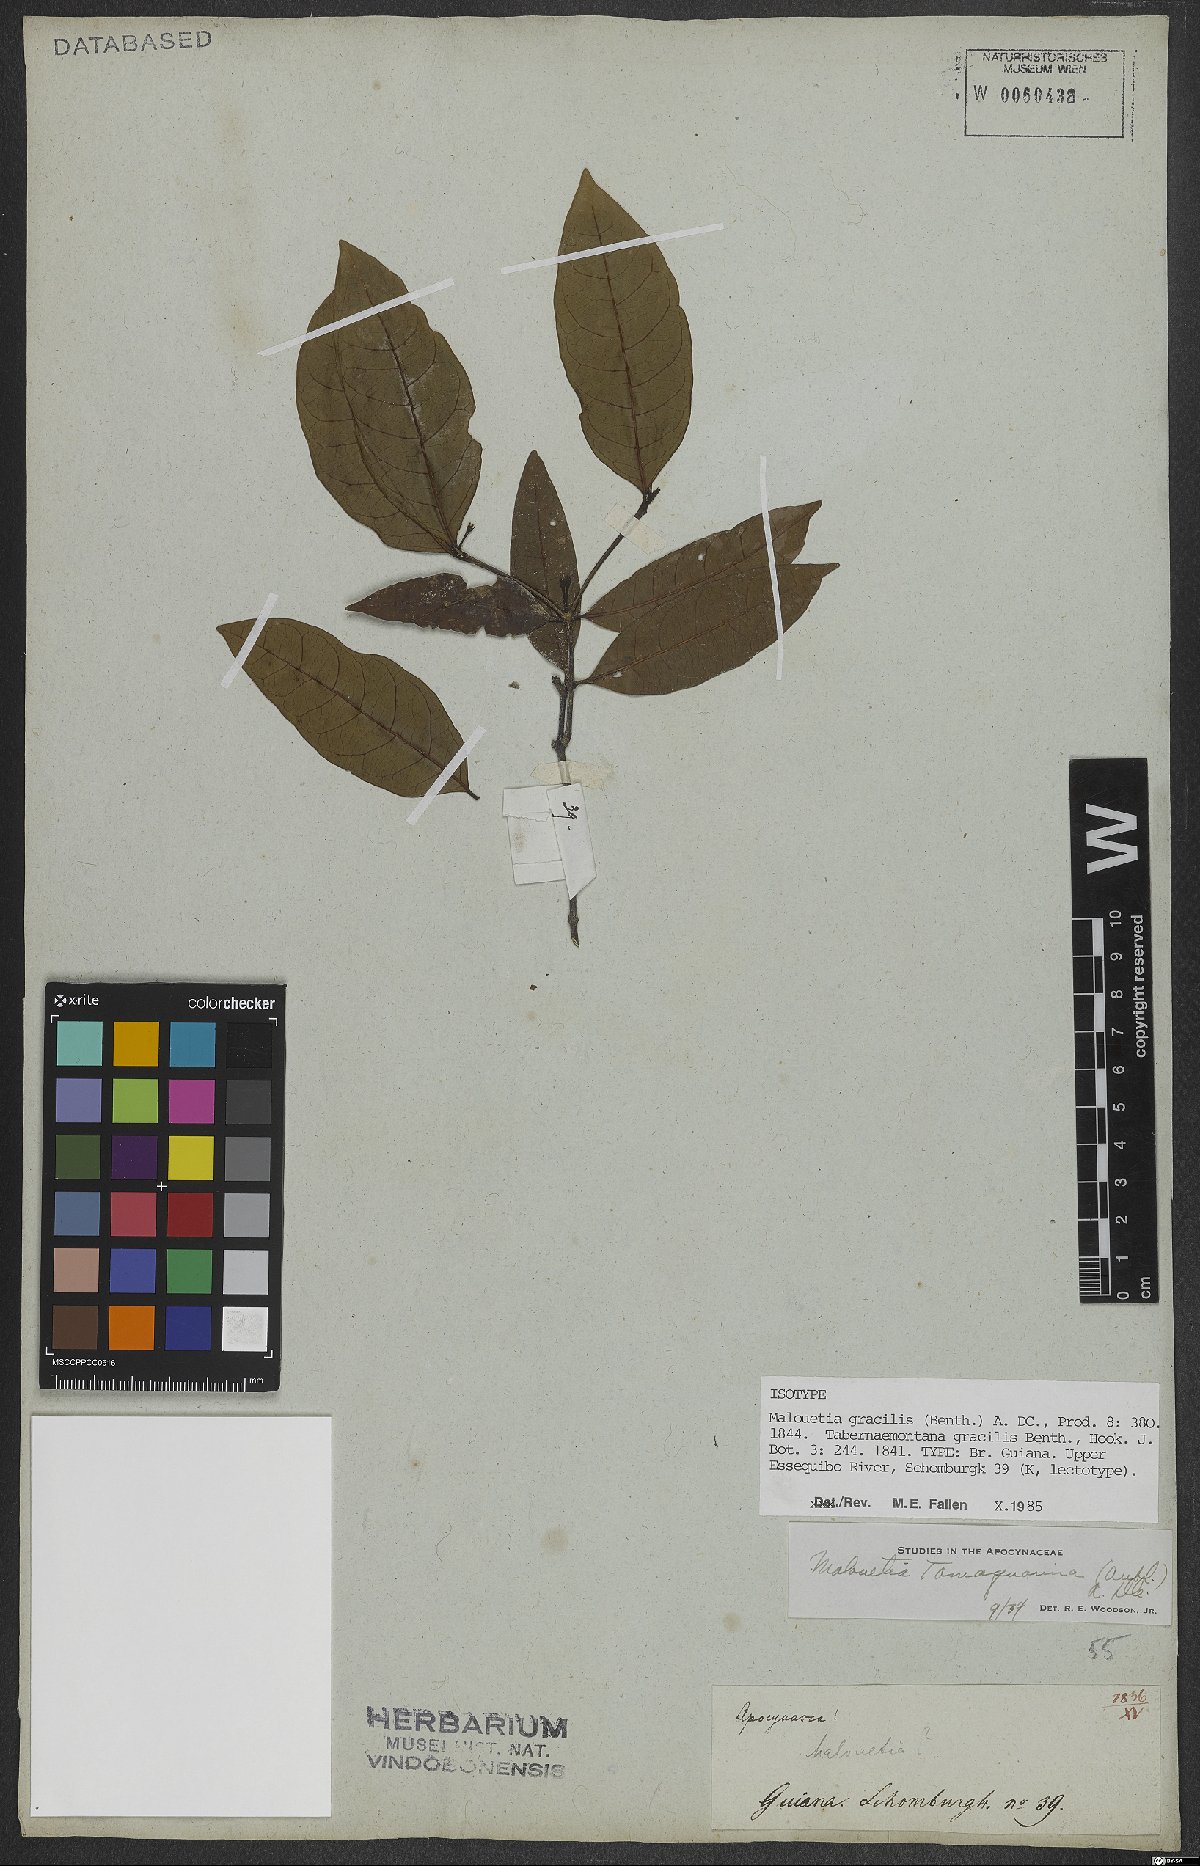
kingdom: Plantae
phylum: Tracheophyta
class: Magnoliopsida
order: Gentianales
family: Apocynaceae
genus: Malouetia
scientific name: Malouetia gracilis
